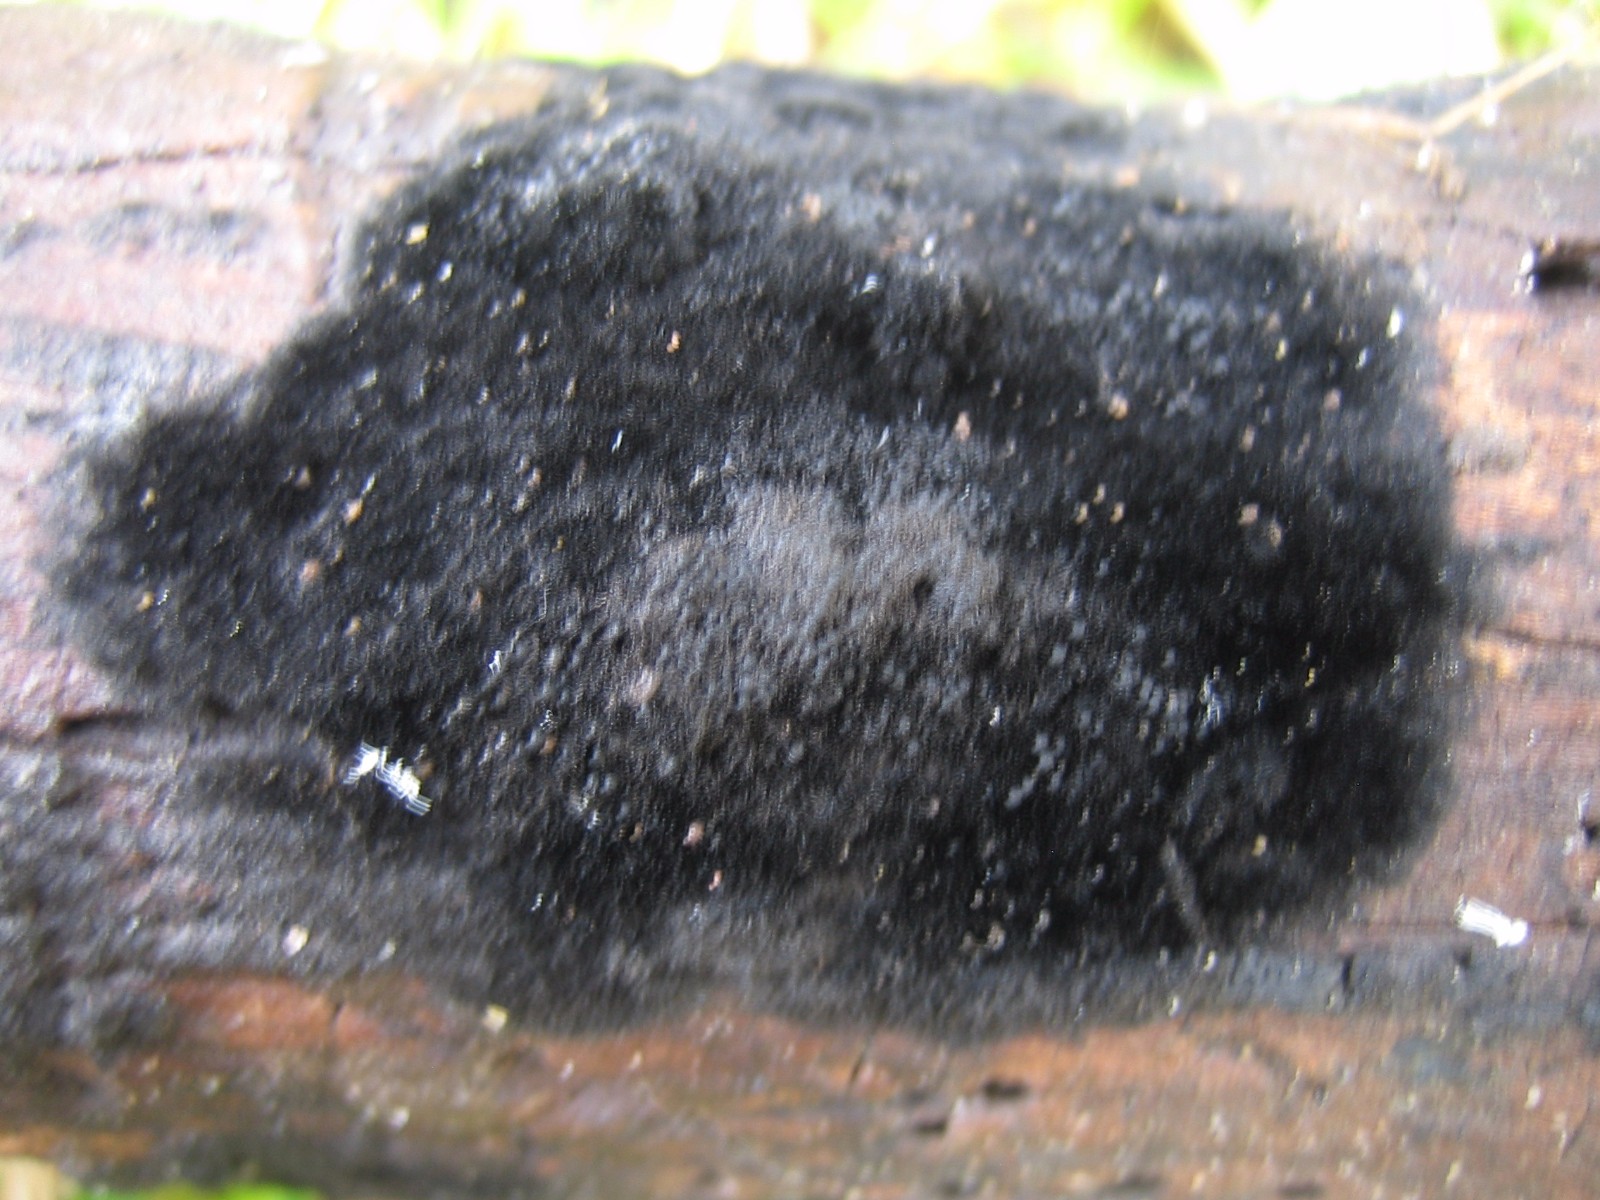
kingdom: Fungi
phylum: Ascomycota
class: Sordariomycetes
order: Coronophorales
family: Chaetosphaerellaceae
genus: Chaetosphaerella
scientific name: Chaetosphaerella phaeostroma
